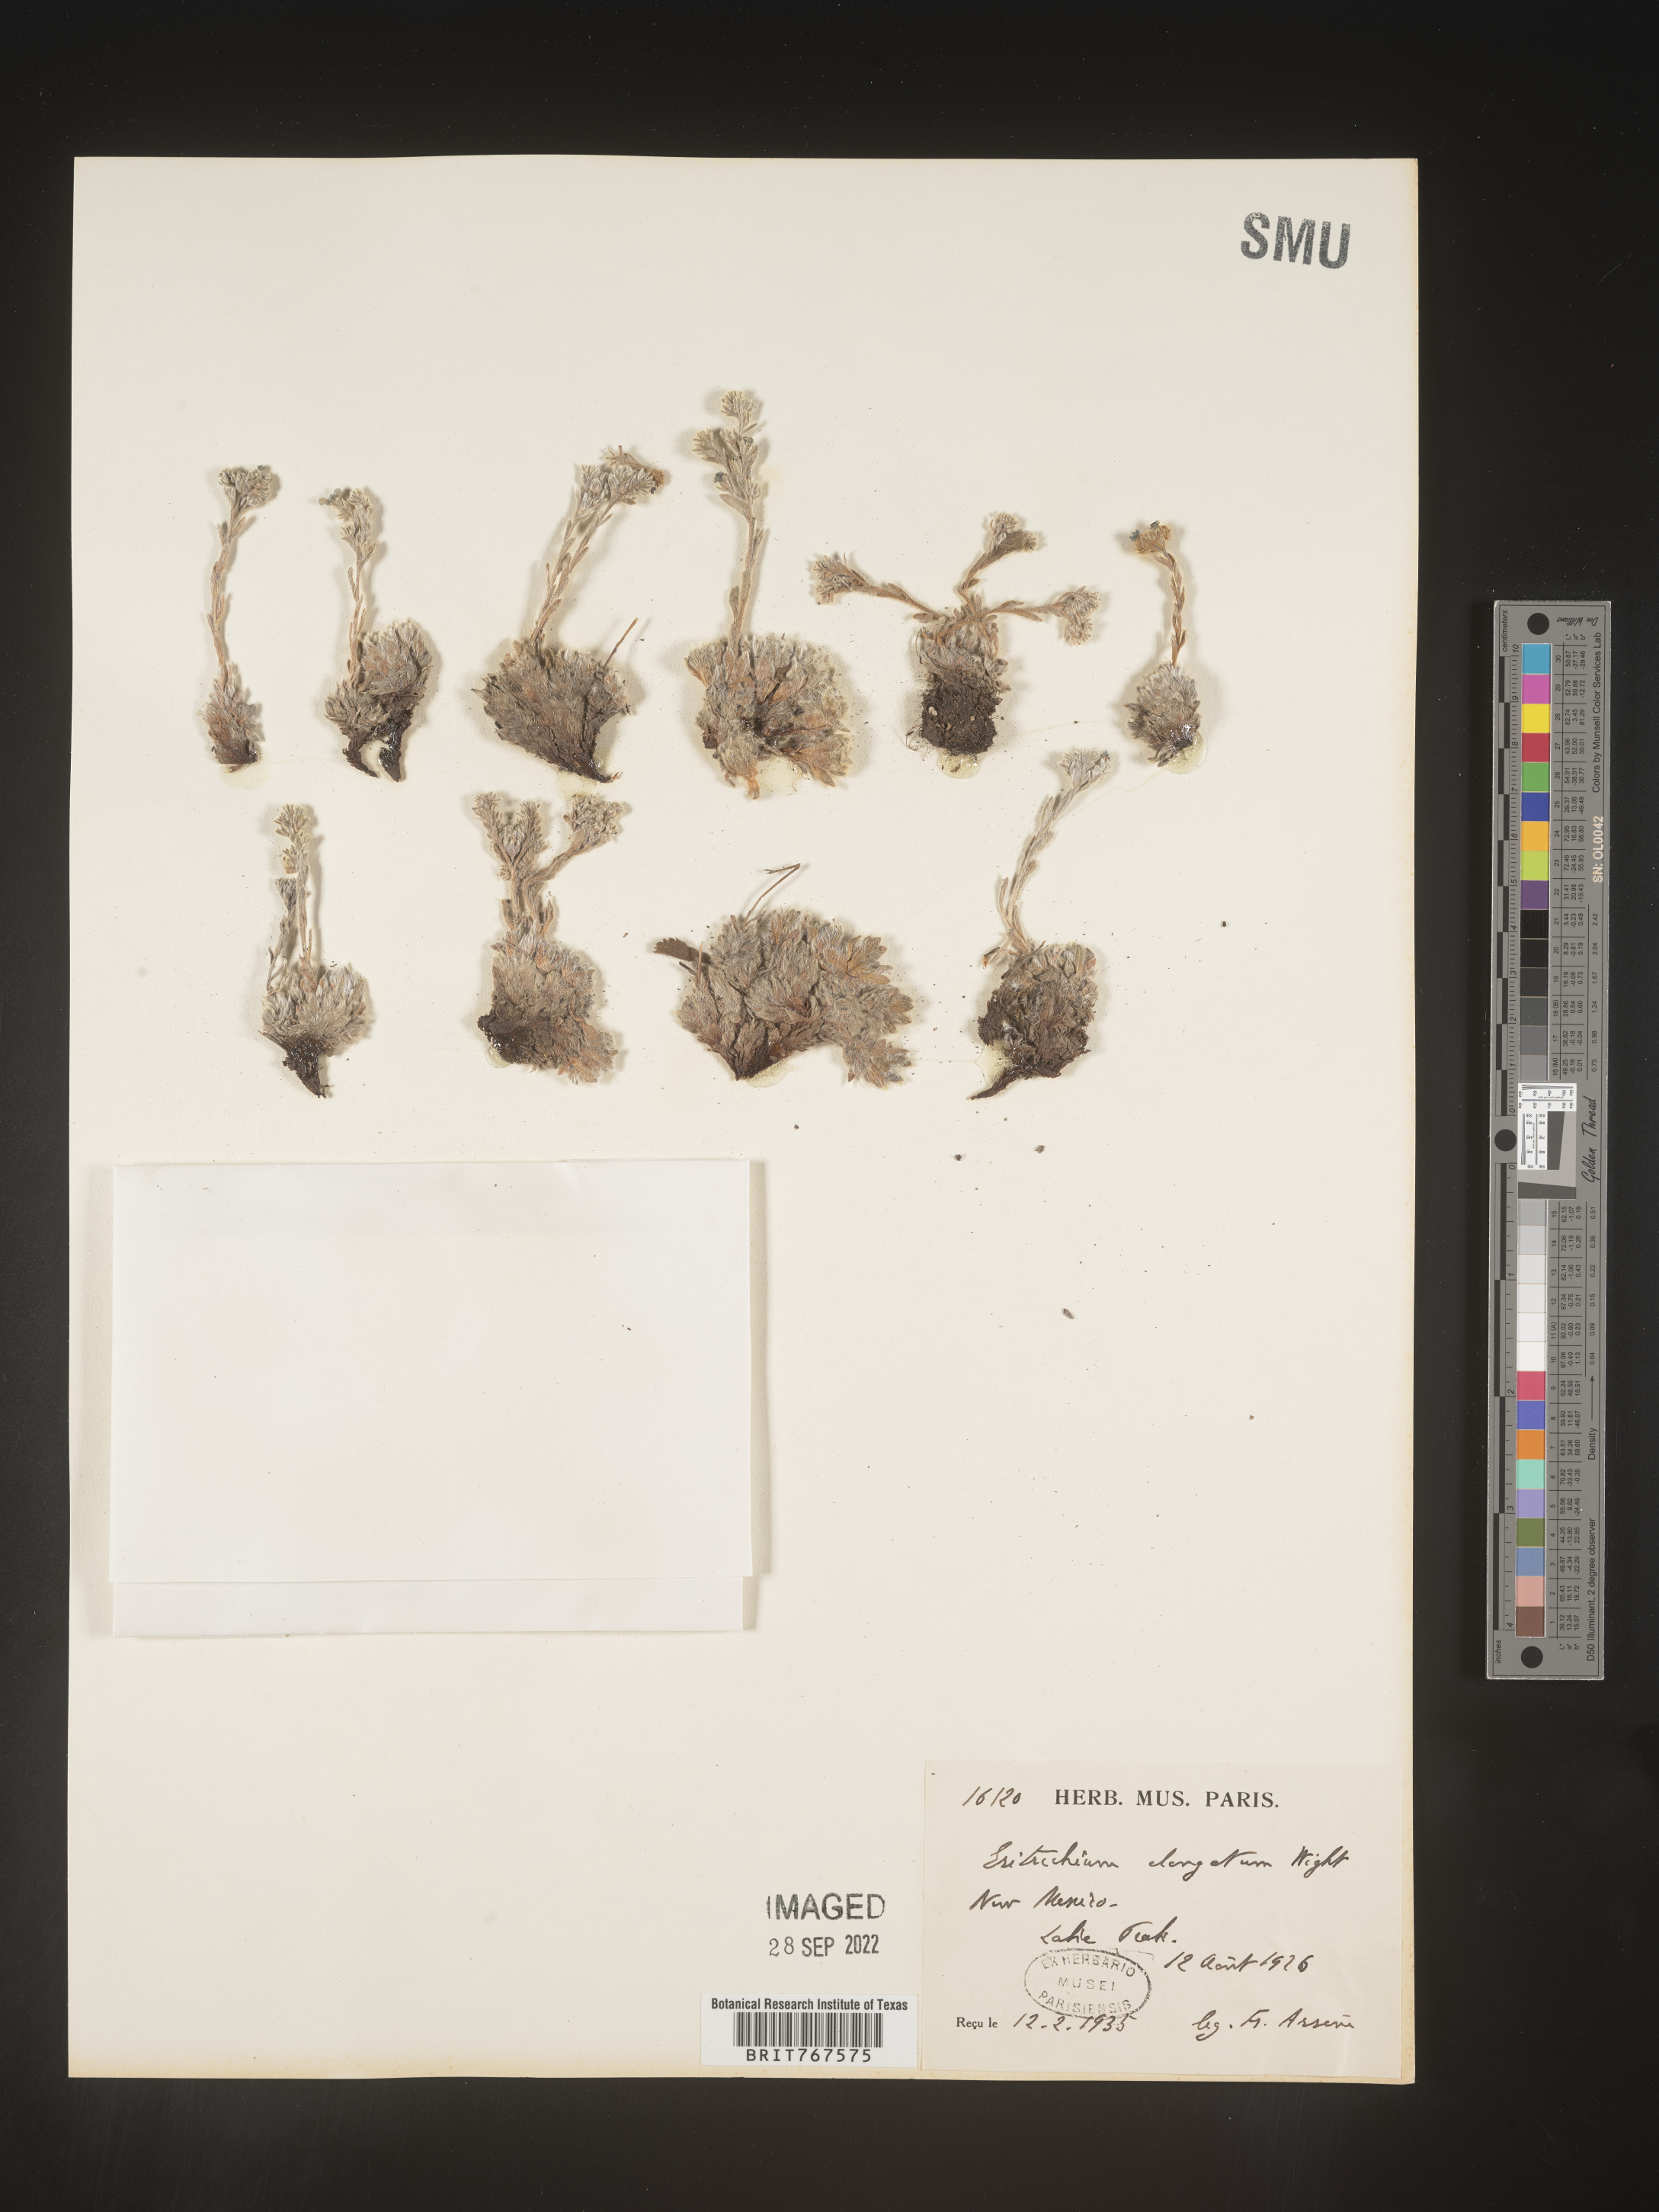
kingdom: Plantae
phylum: Tracheophyta
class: Magnoliopsida
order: Boraginales
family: Boraginaceae
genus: Eritrichium
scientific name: Eritrichium
